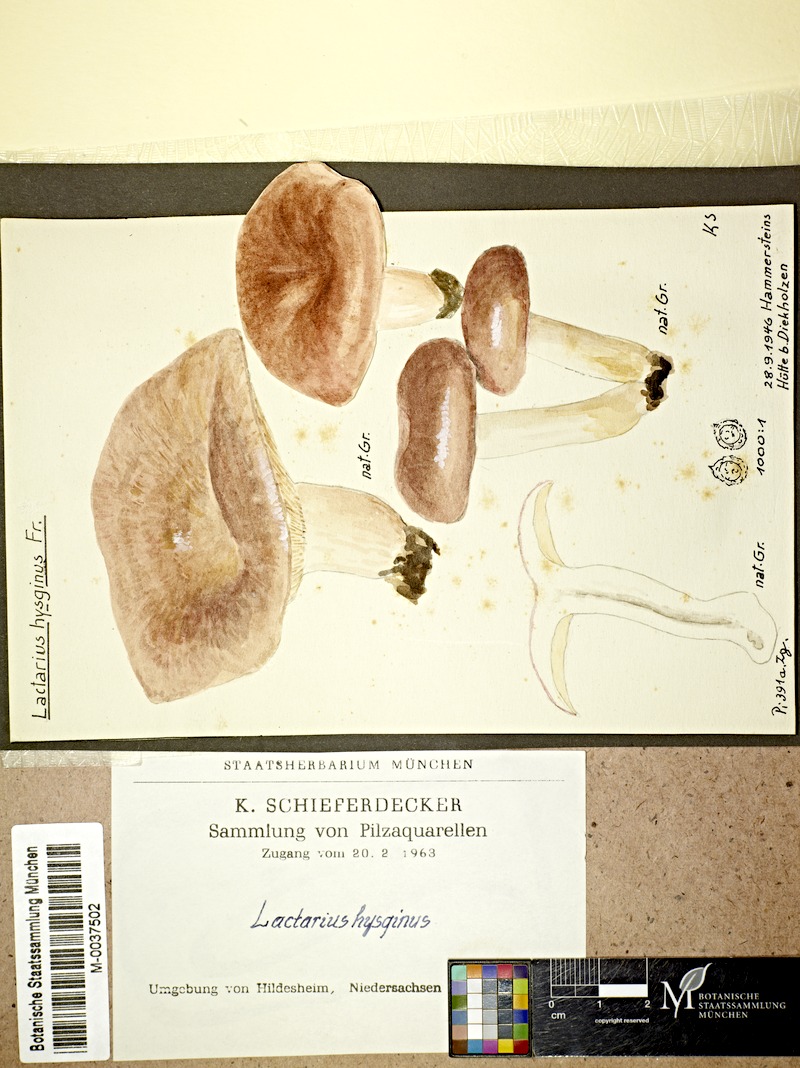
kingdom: Fungi
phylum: Basidiomycota
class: Agaricomycetes
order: Russulales
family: Russulaceae
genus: Lactarius
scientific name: Lactarius hysginus
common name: Dyed milkcap
